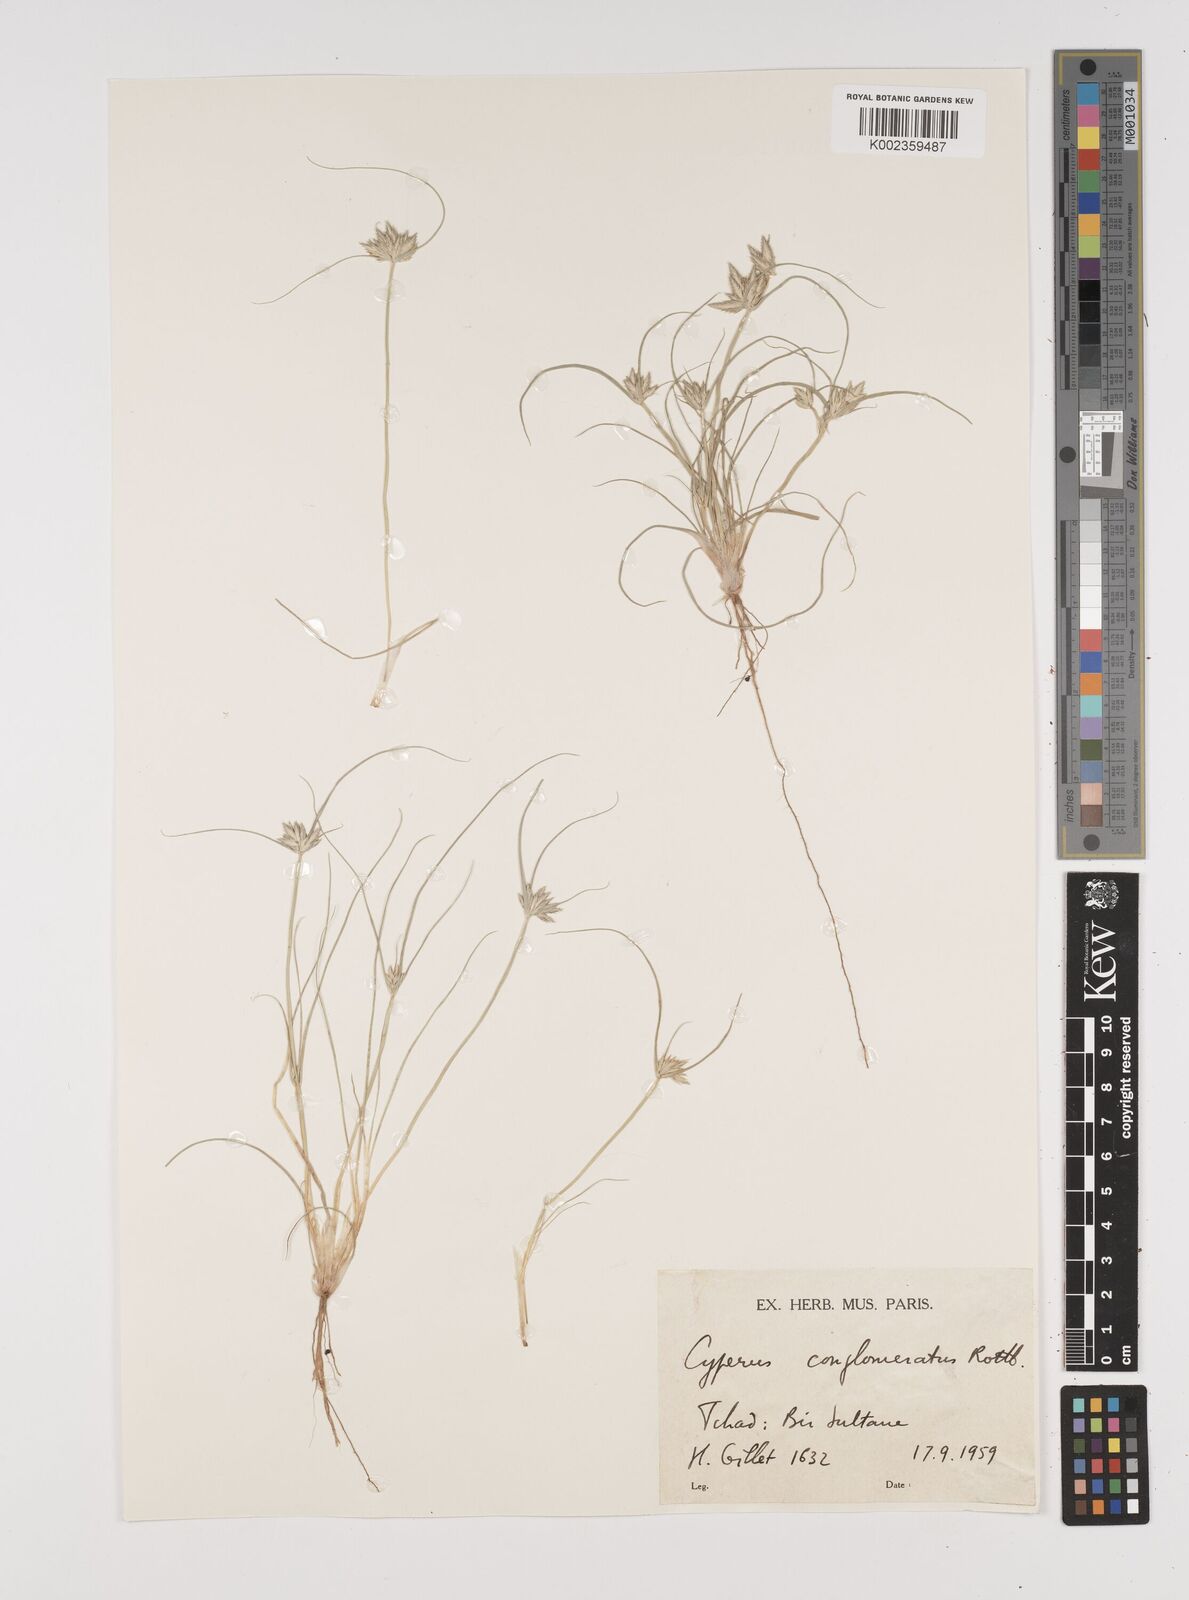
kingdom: Plantae
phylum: Tracheophyta
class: Liliopsida
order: Poales
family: Cyperaceae
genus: Cyperus
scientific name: Cyperus conglomeratus
